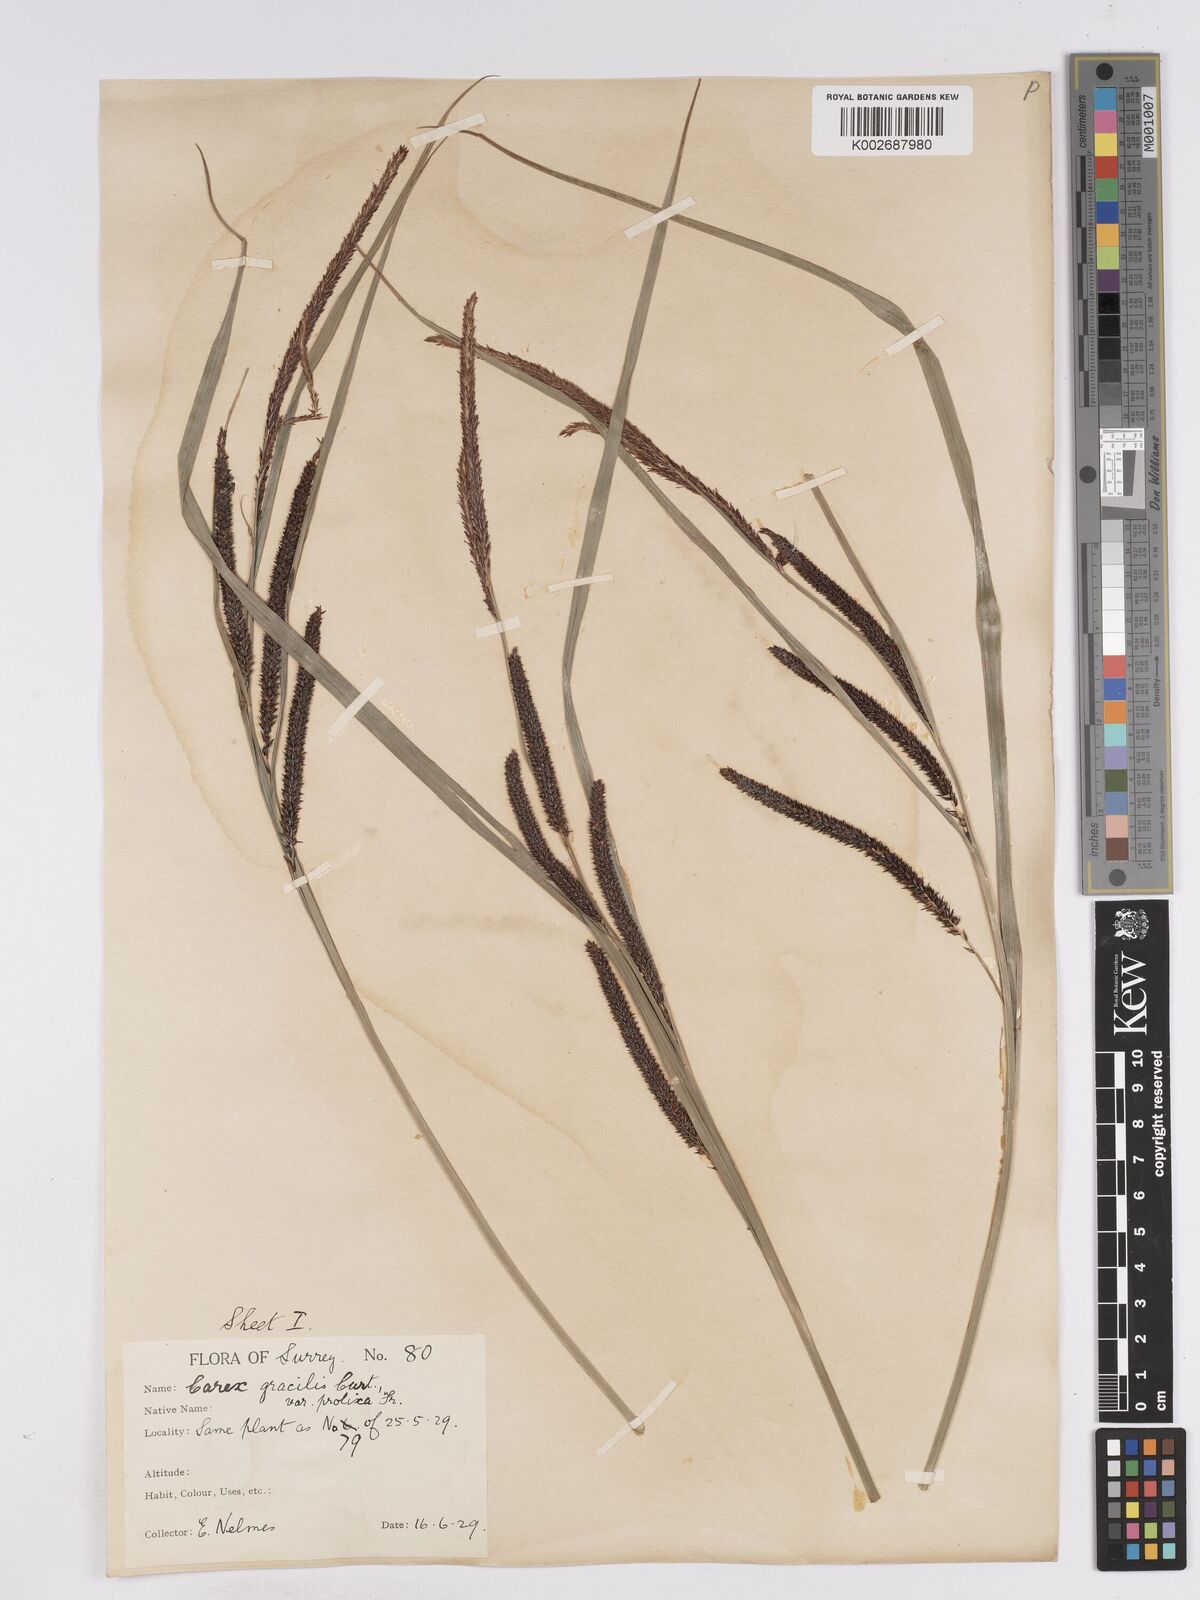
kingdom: Plantae
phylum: Tracheophyta
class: Liliopsida
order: Poales
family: Cyperaceae
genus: Carex
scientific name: Carex acuta
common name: Slender tufted-sedge
